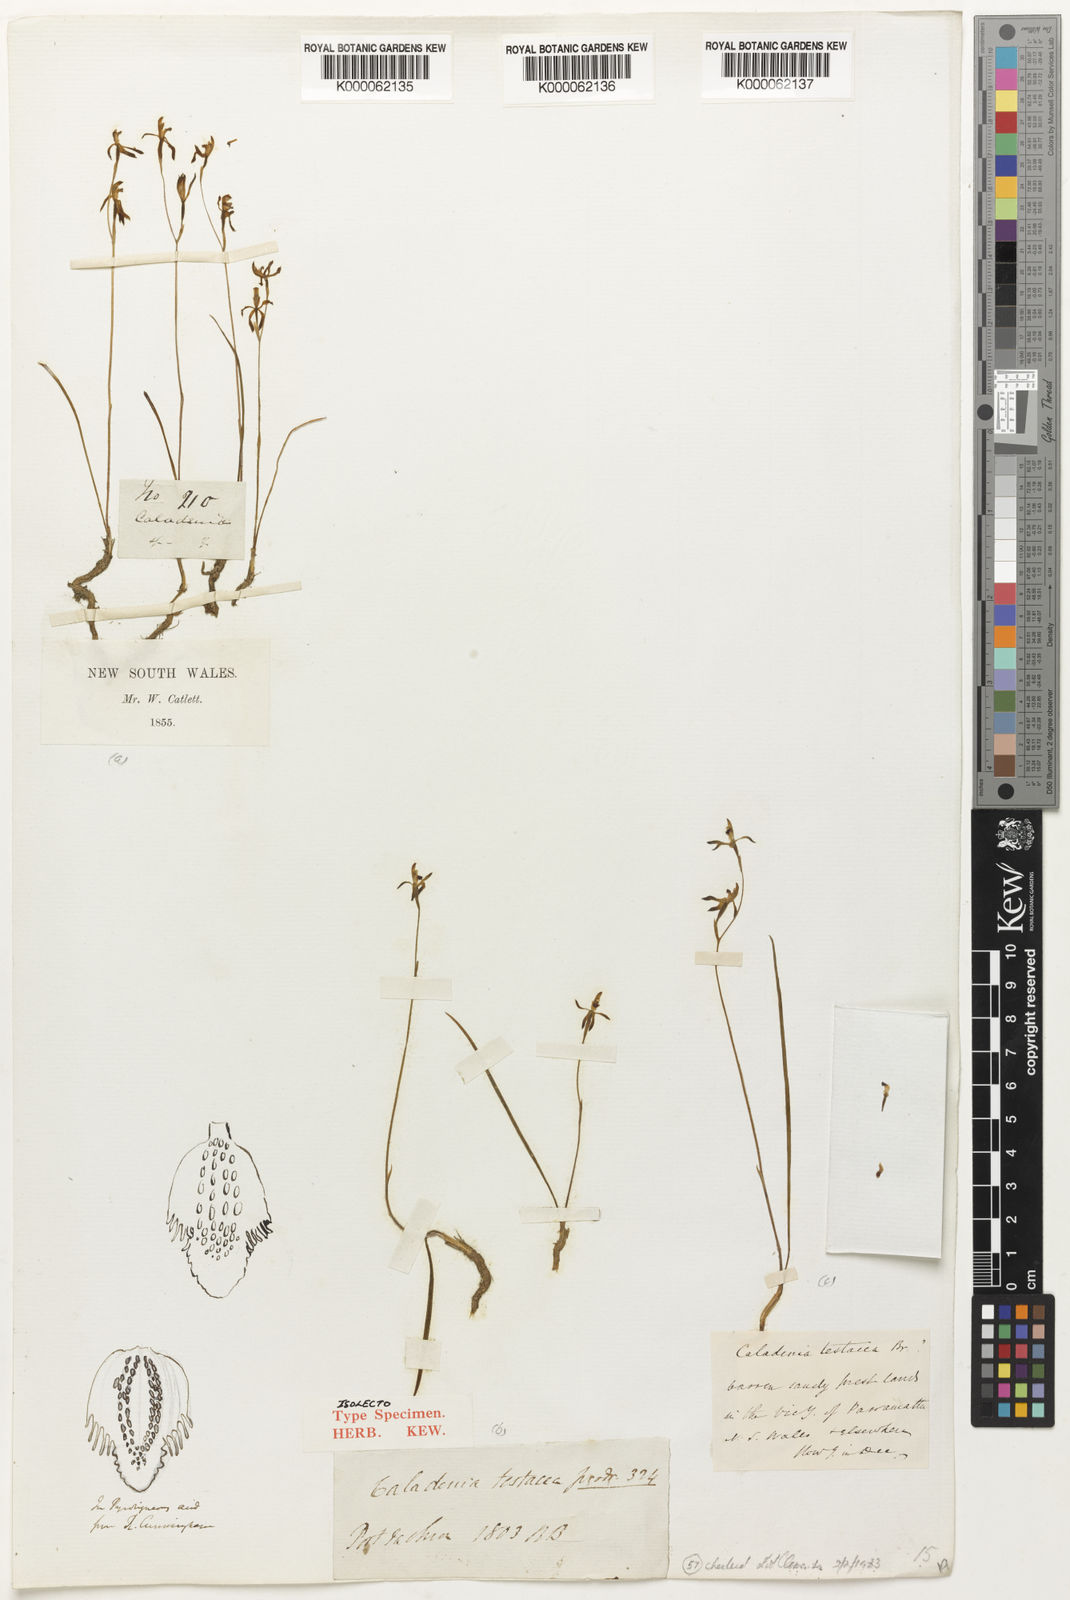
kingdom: Plantae
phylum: Tracheophyta
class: Liliopsida
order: Asparagales
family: Orchidaceae
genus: Caladenia
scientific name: Caladenia
